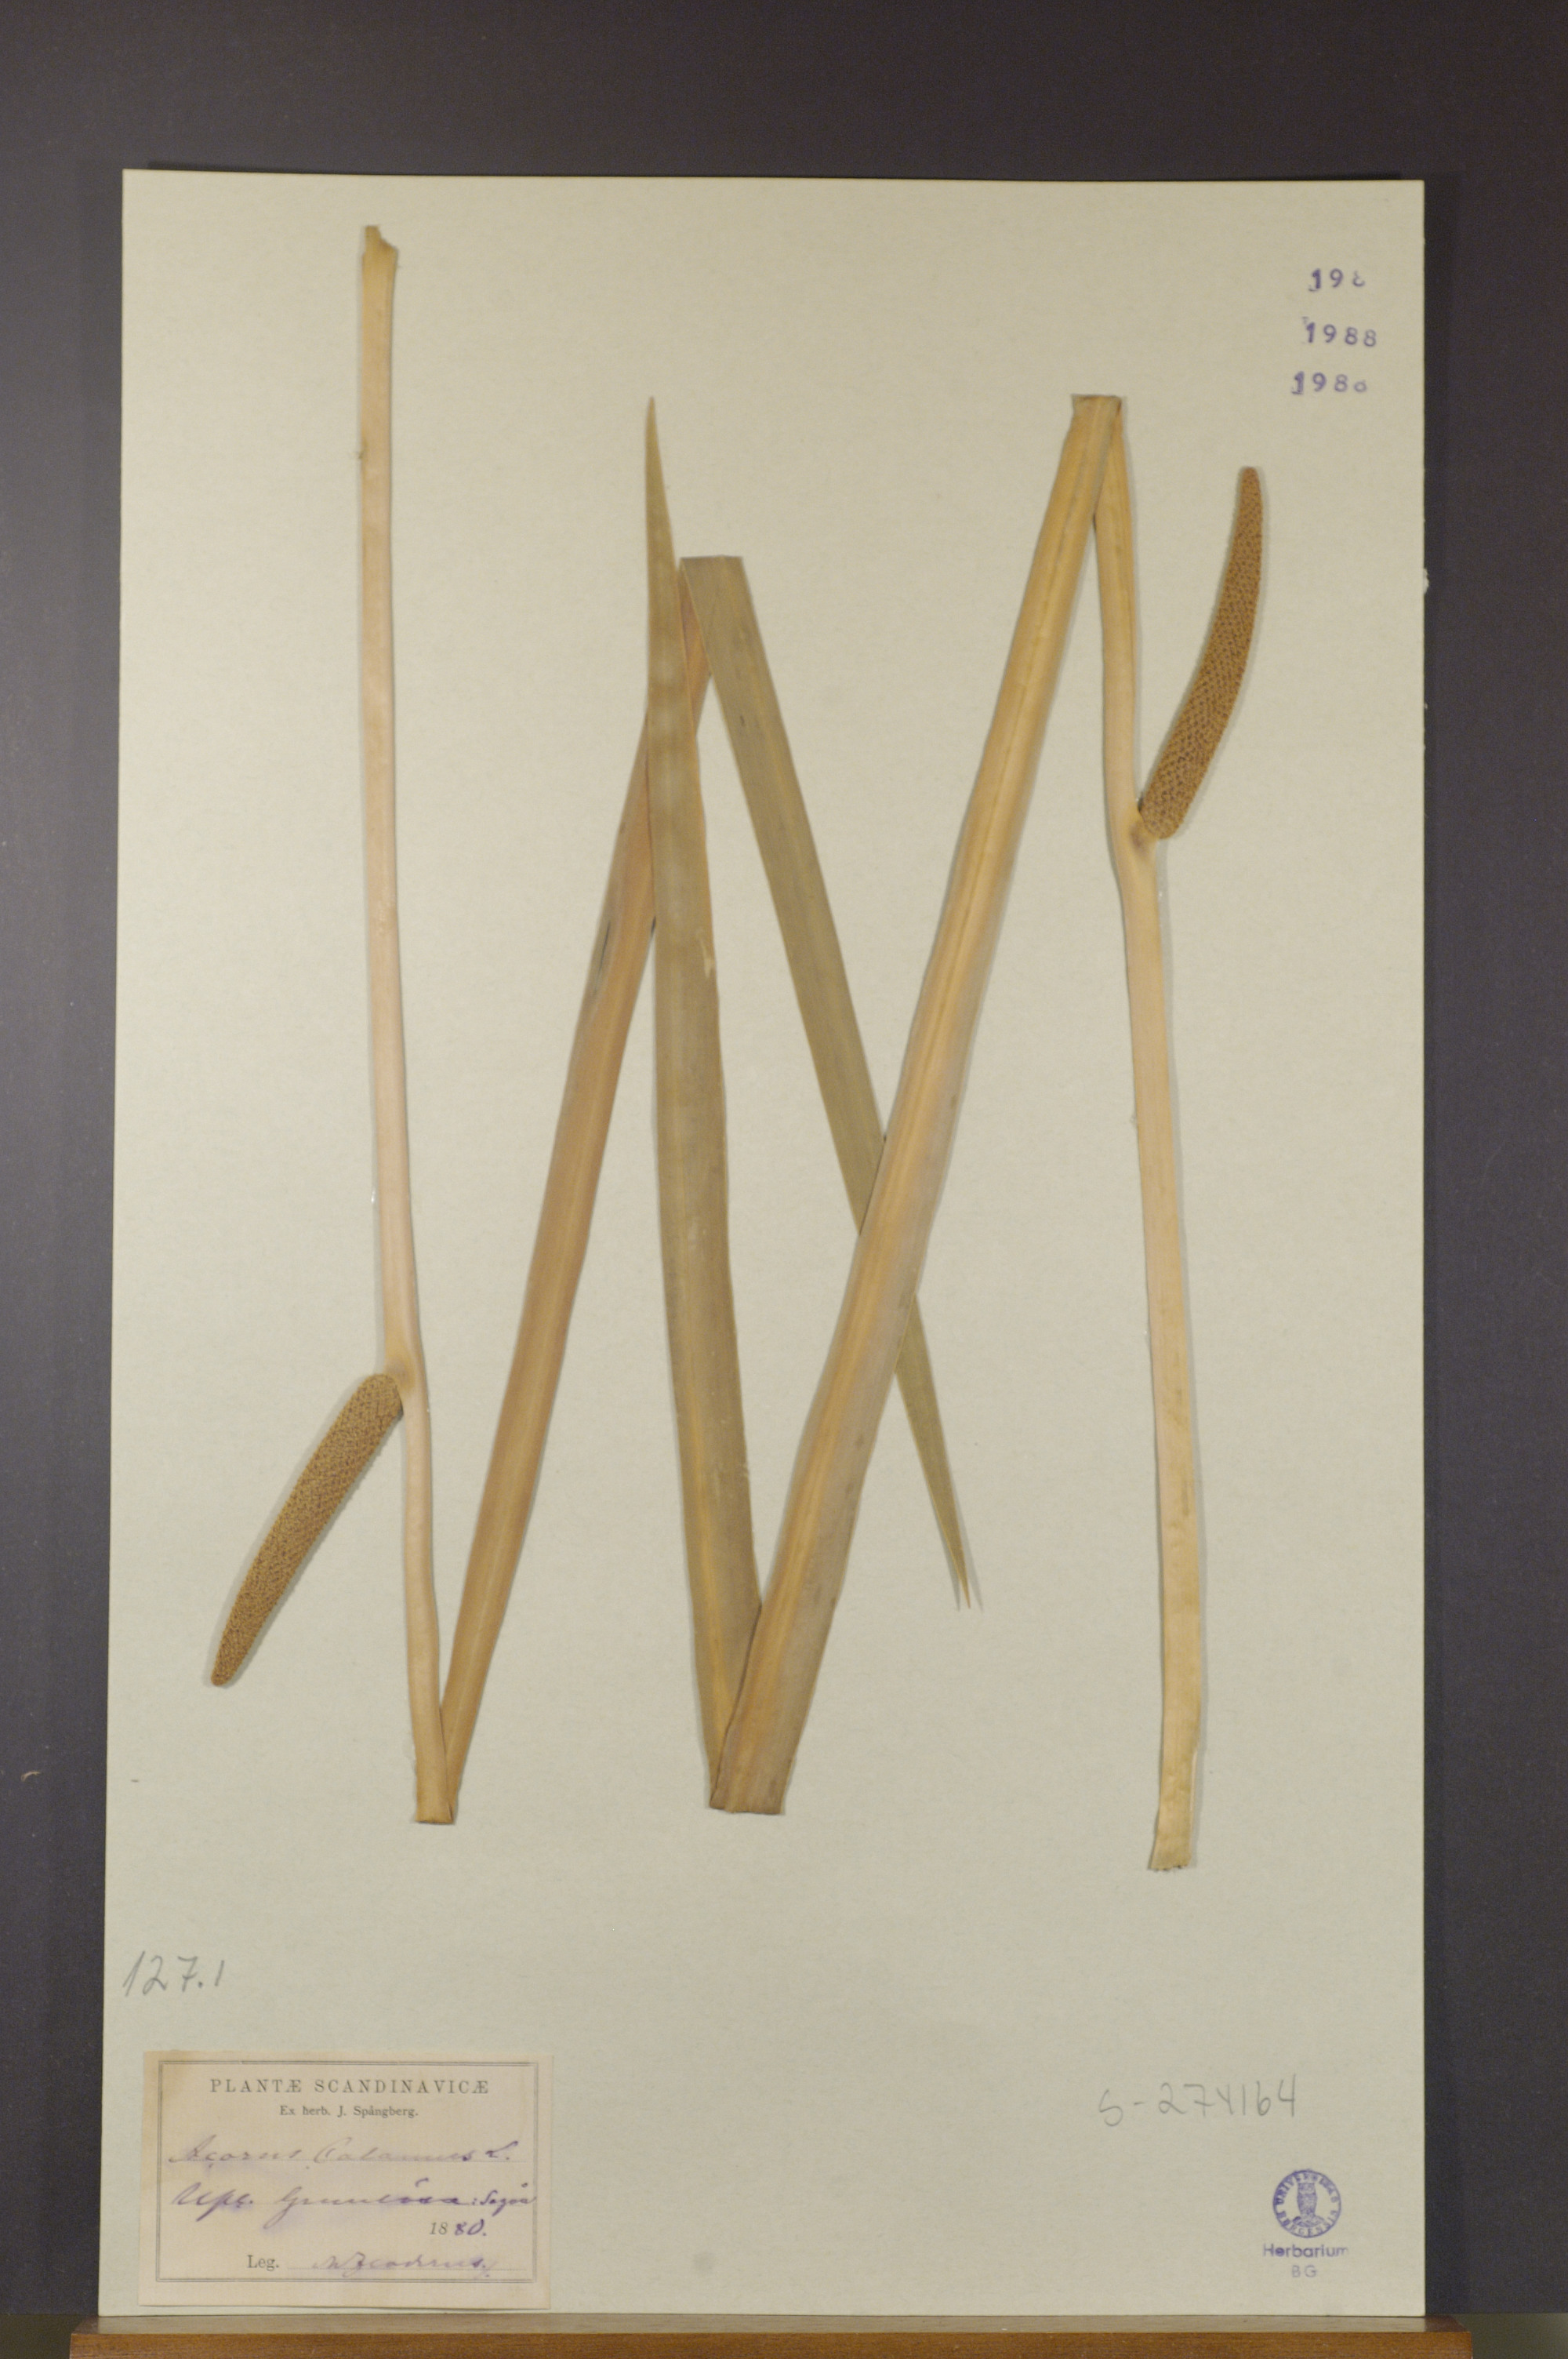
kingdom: Plantae
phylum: Tracheophyta
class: Liliopsida
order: Acorales
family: Acoraceae
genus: Acorus
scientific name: Acorus calamus
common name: Sweet-flag
